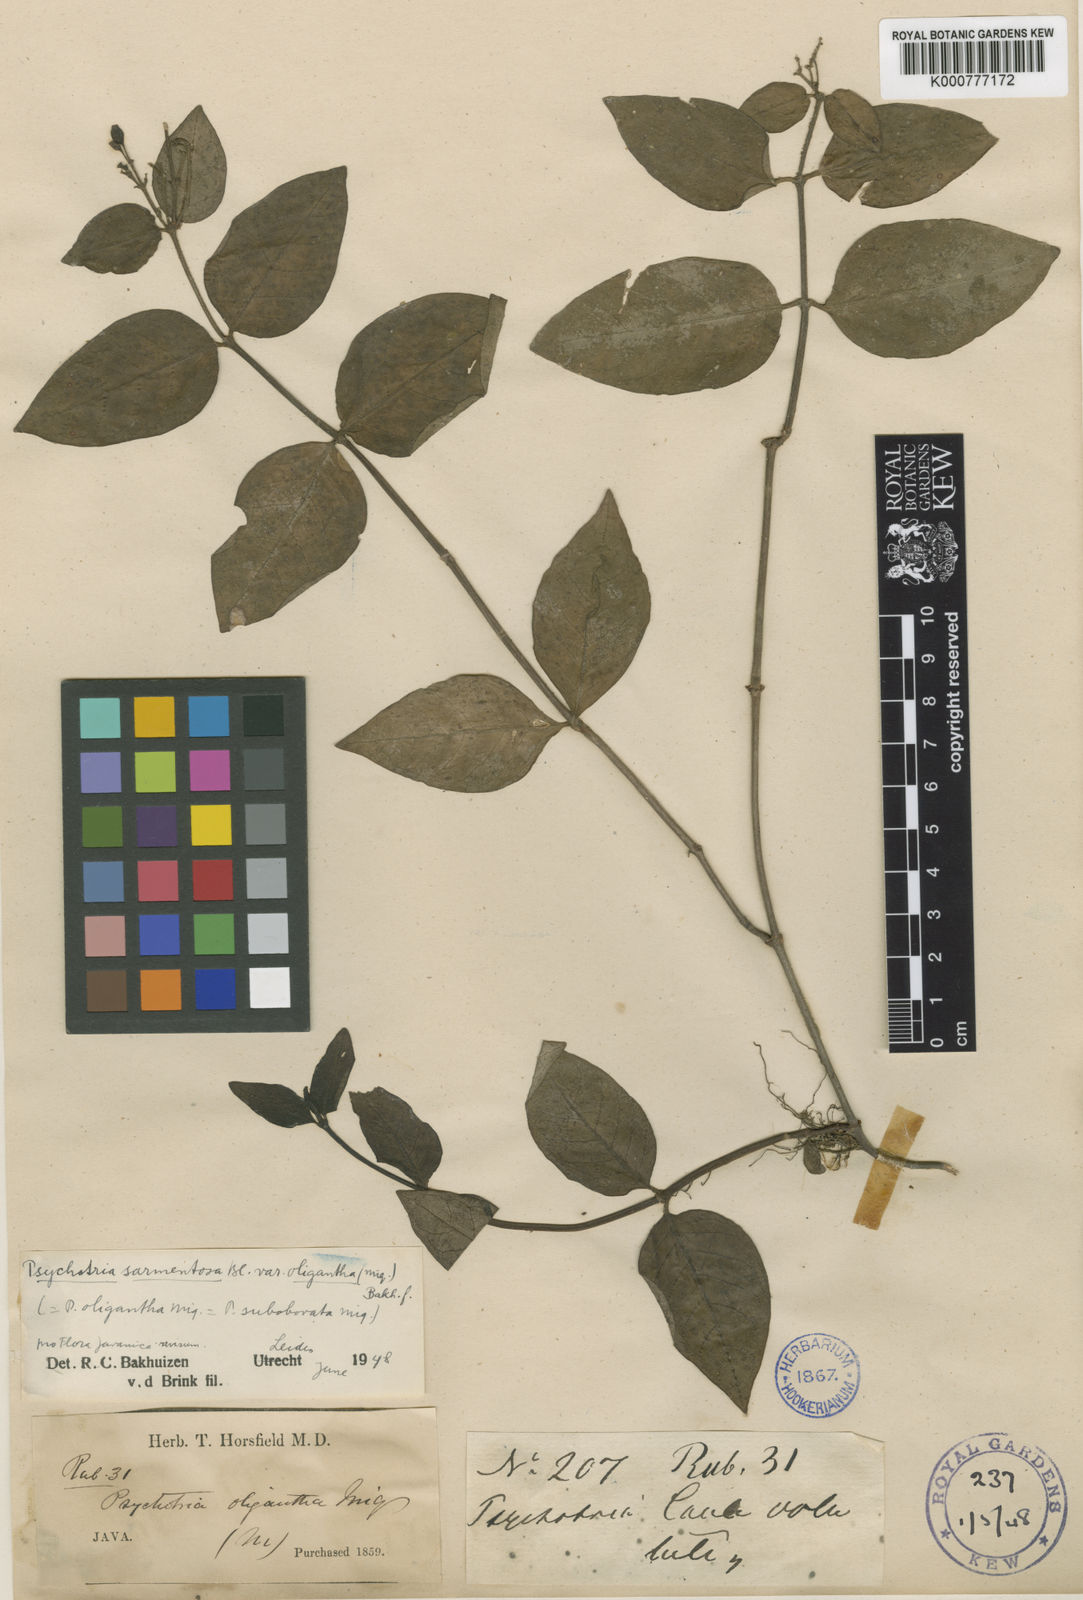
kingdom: Plantae
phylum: Tracheophyta
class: Magnoliopsida
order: Gentianales
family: Rubiaceae
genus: Psychotria
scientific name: Psychotria sarmentosa
